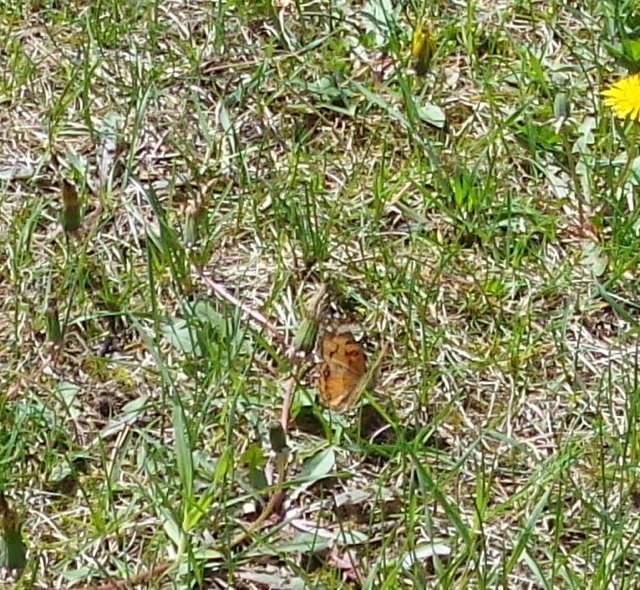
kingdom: Animalia
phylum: Arthropoda
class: Insecta
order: Lepidoptera
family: Nymphalidae
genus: Vanessa
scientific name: Vanessa virginiensis
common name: American Lady
